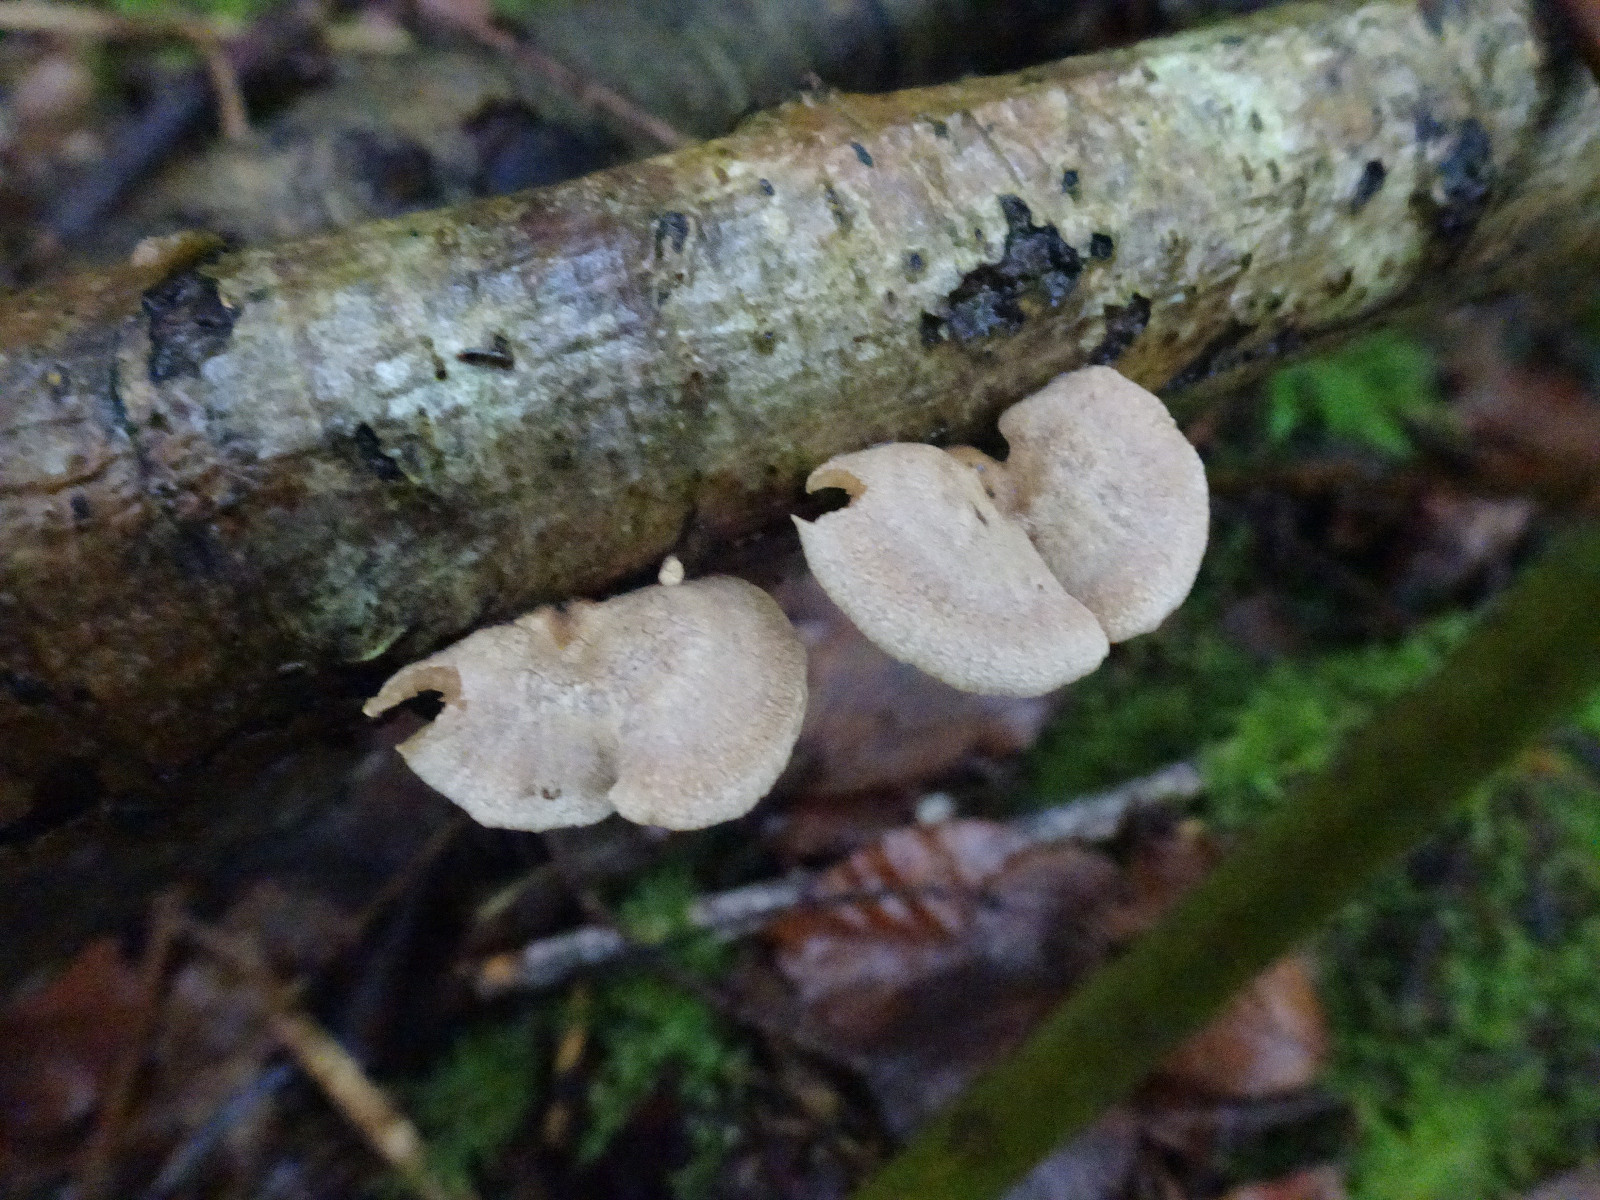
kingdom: Fungi
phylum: Basidiomycota
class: Agaricomycetes
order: Agaricales
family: Mycenaceae
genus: Panellus
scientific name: Panellus stipticus
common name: kliddet epaulethat
